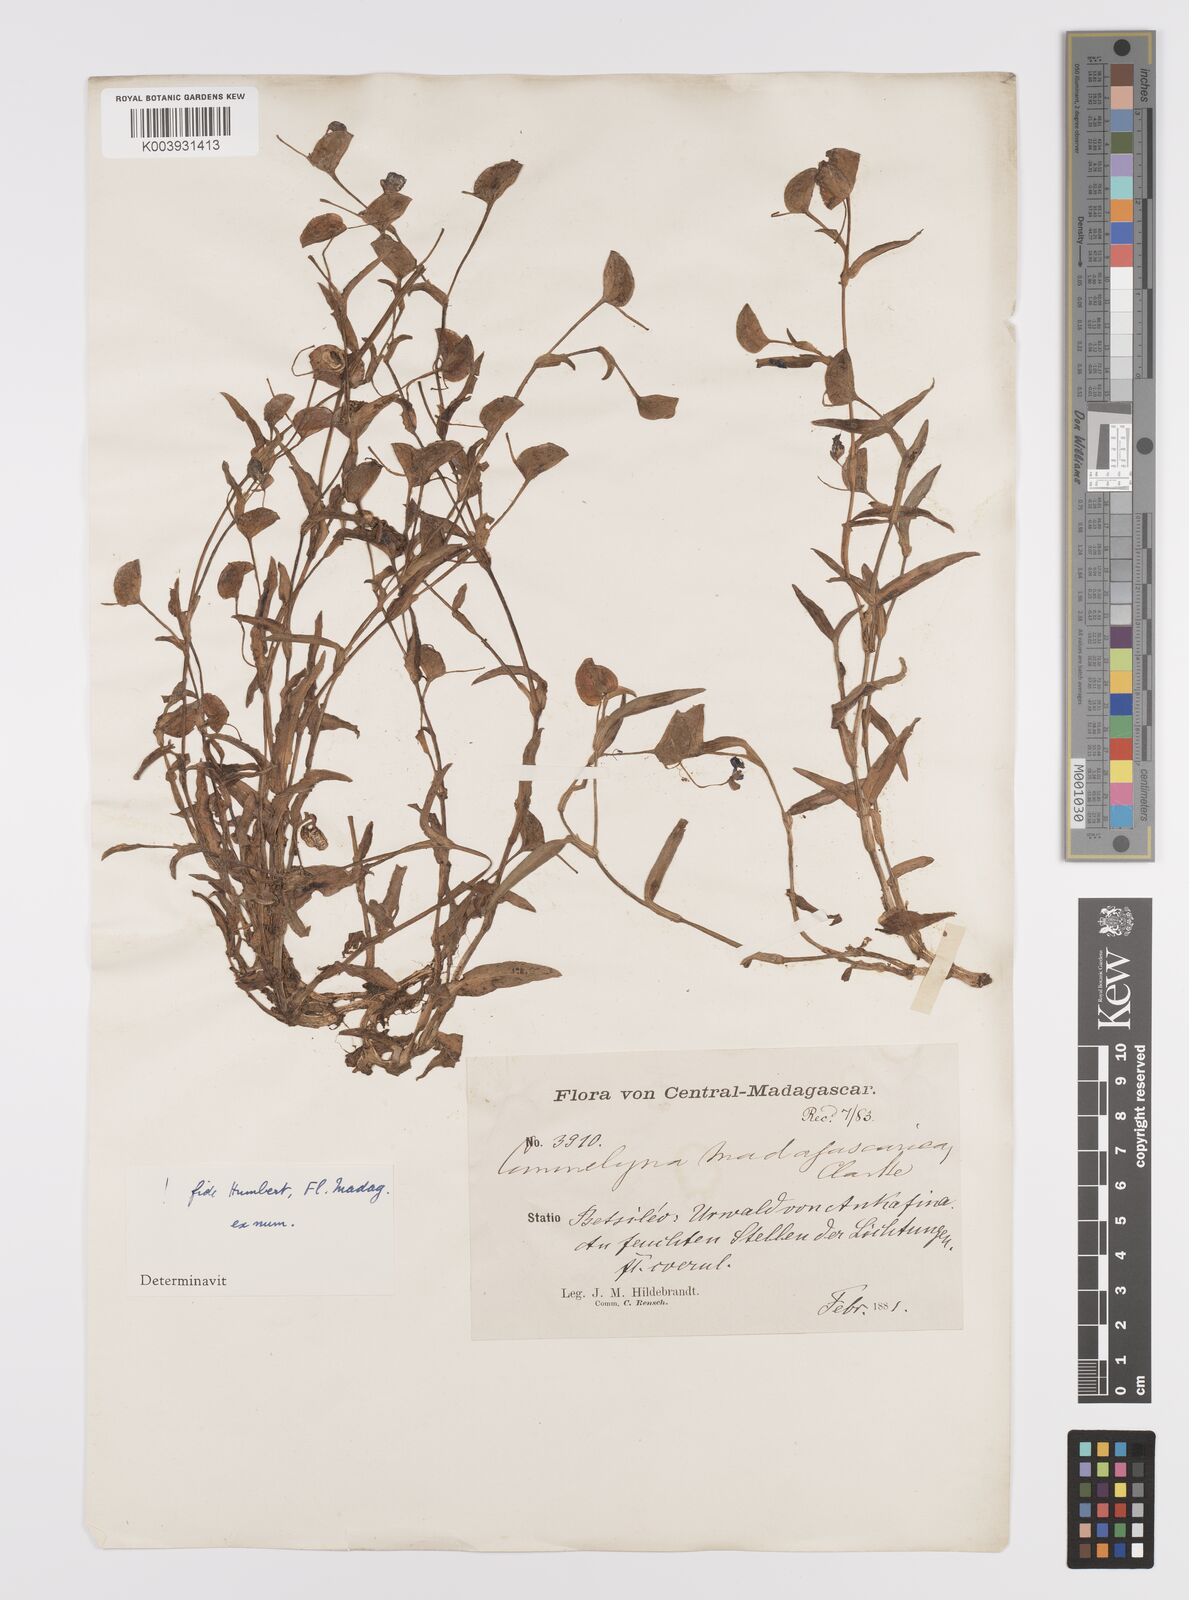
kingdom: Plantae
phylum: Tracheophyta
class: Liliopsida
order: Commelinales
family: Commelinaceae
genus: Commelina
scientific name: Commelina madagascarica
